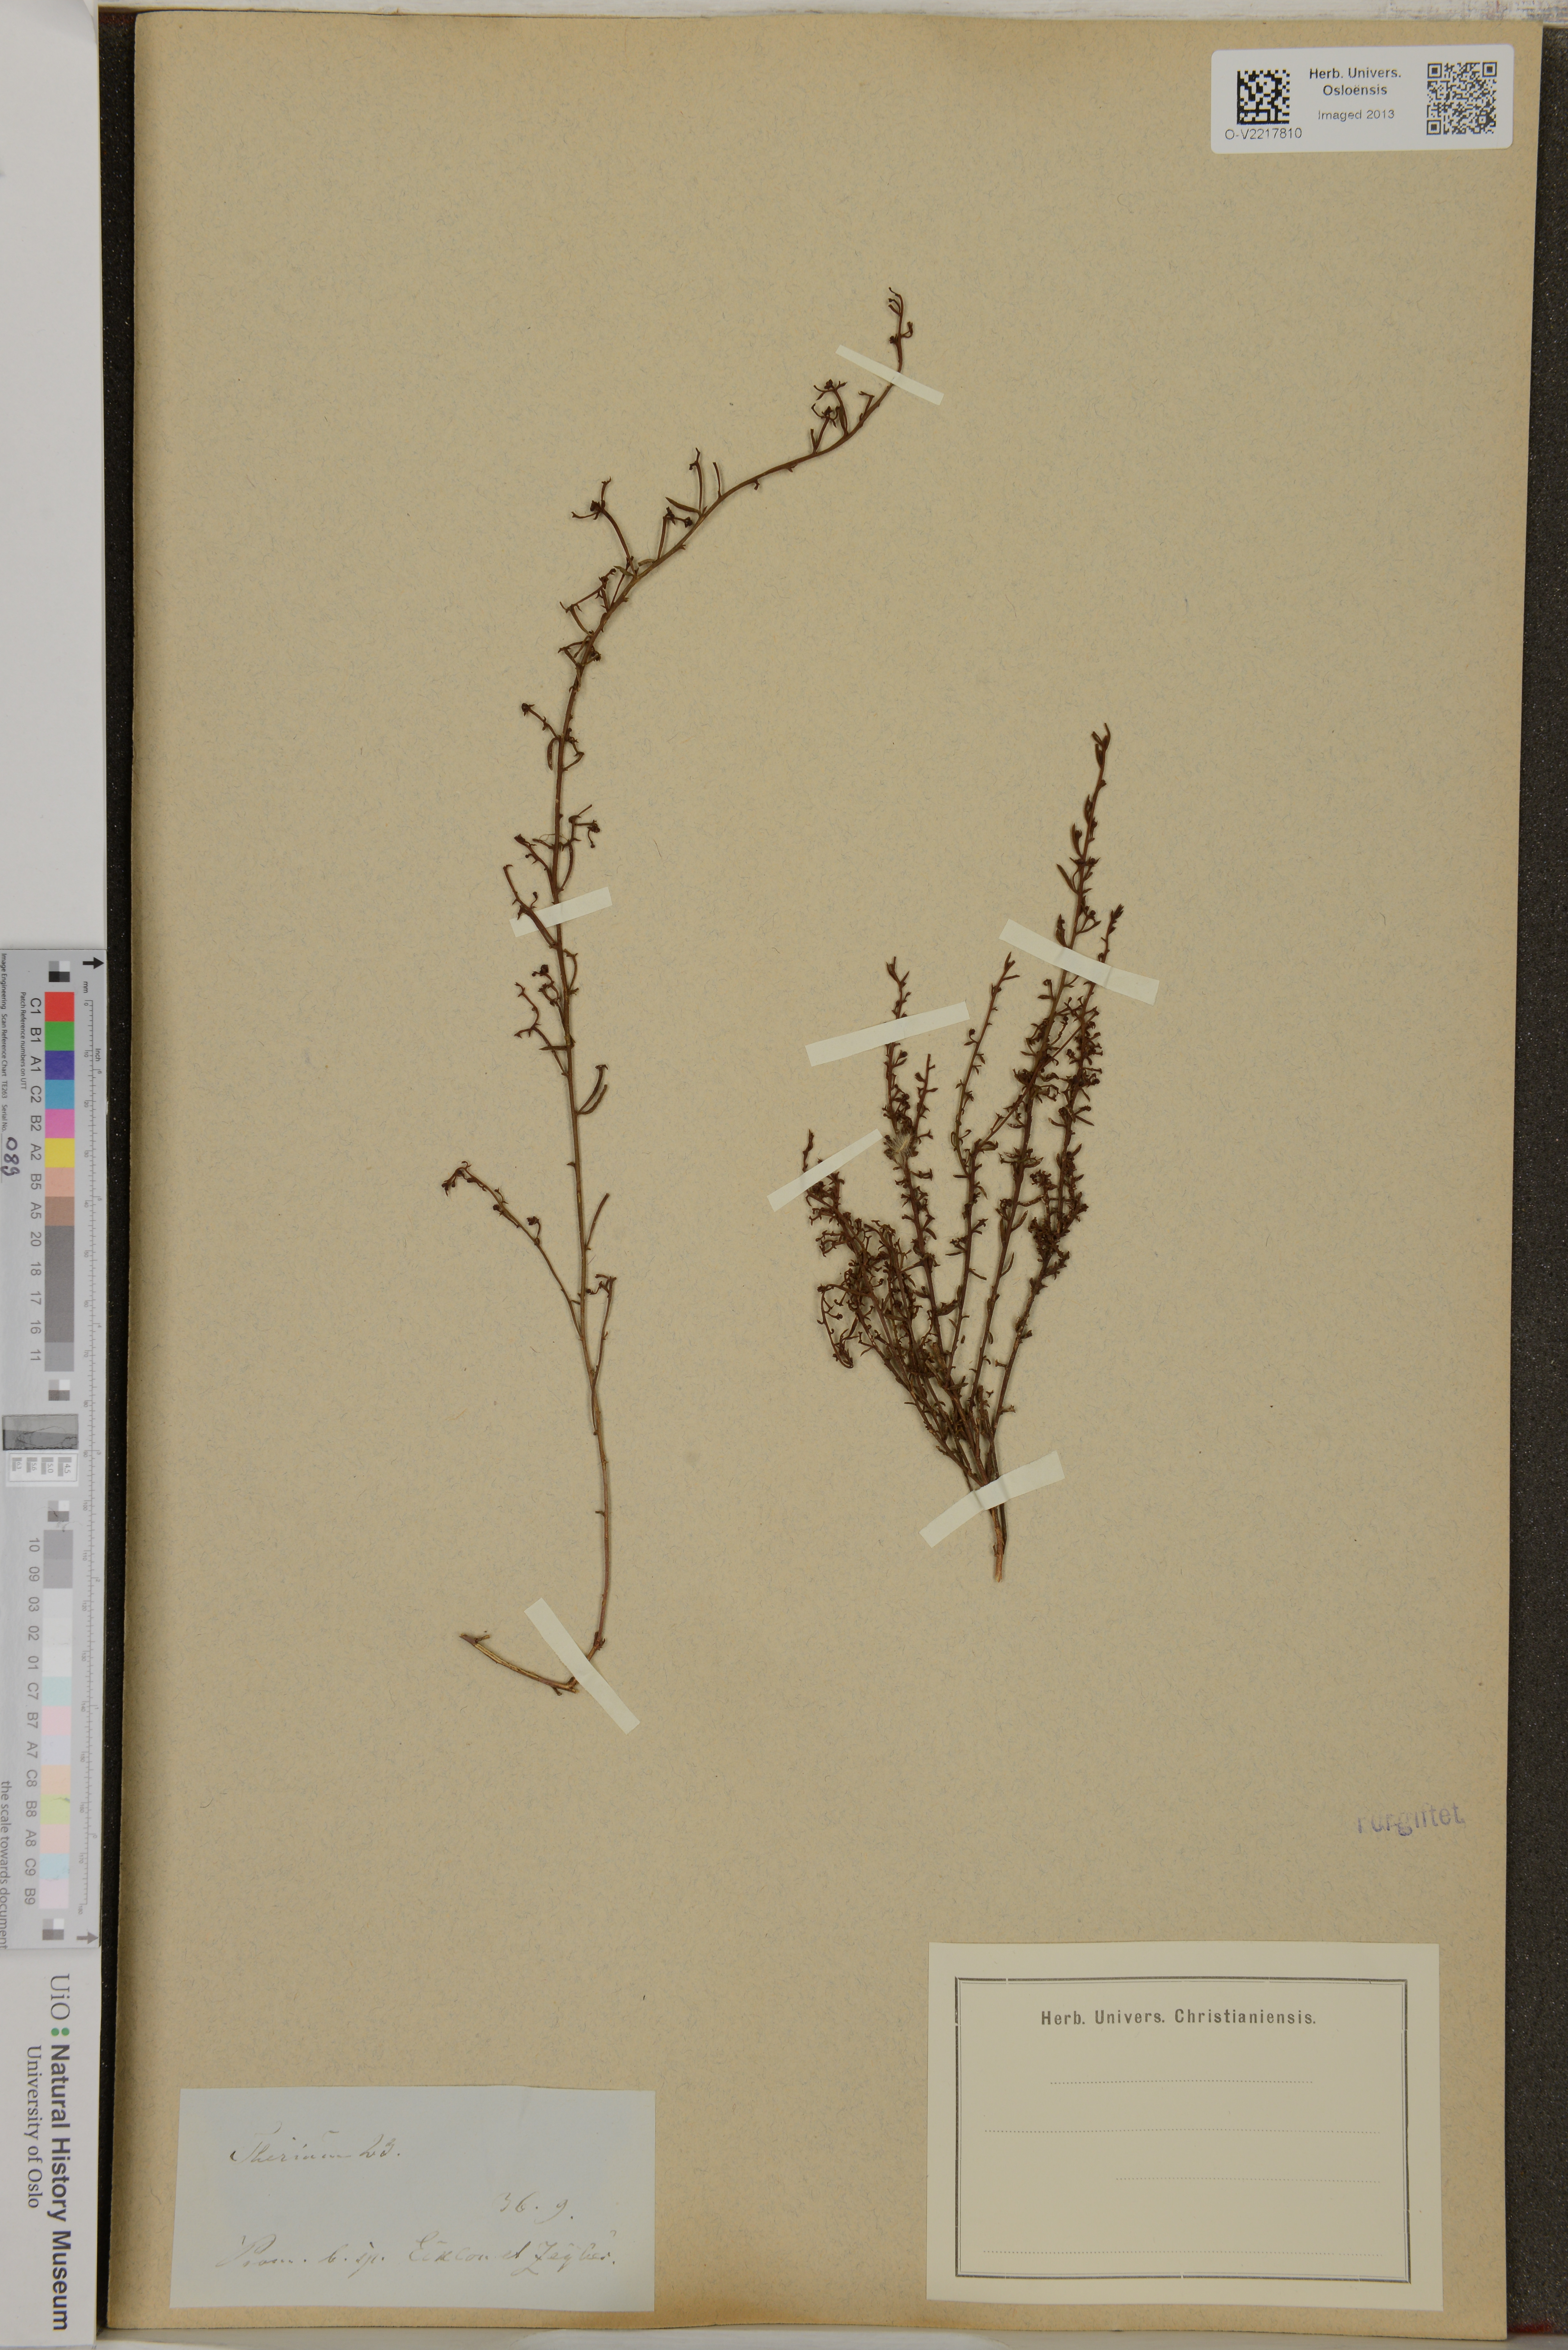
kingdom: Plantae
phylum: Tracheophyta
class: Magnoliopsida
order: Santalales
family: Thesiaceae
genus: Thesium
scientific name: Thesium
